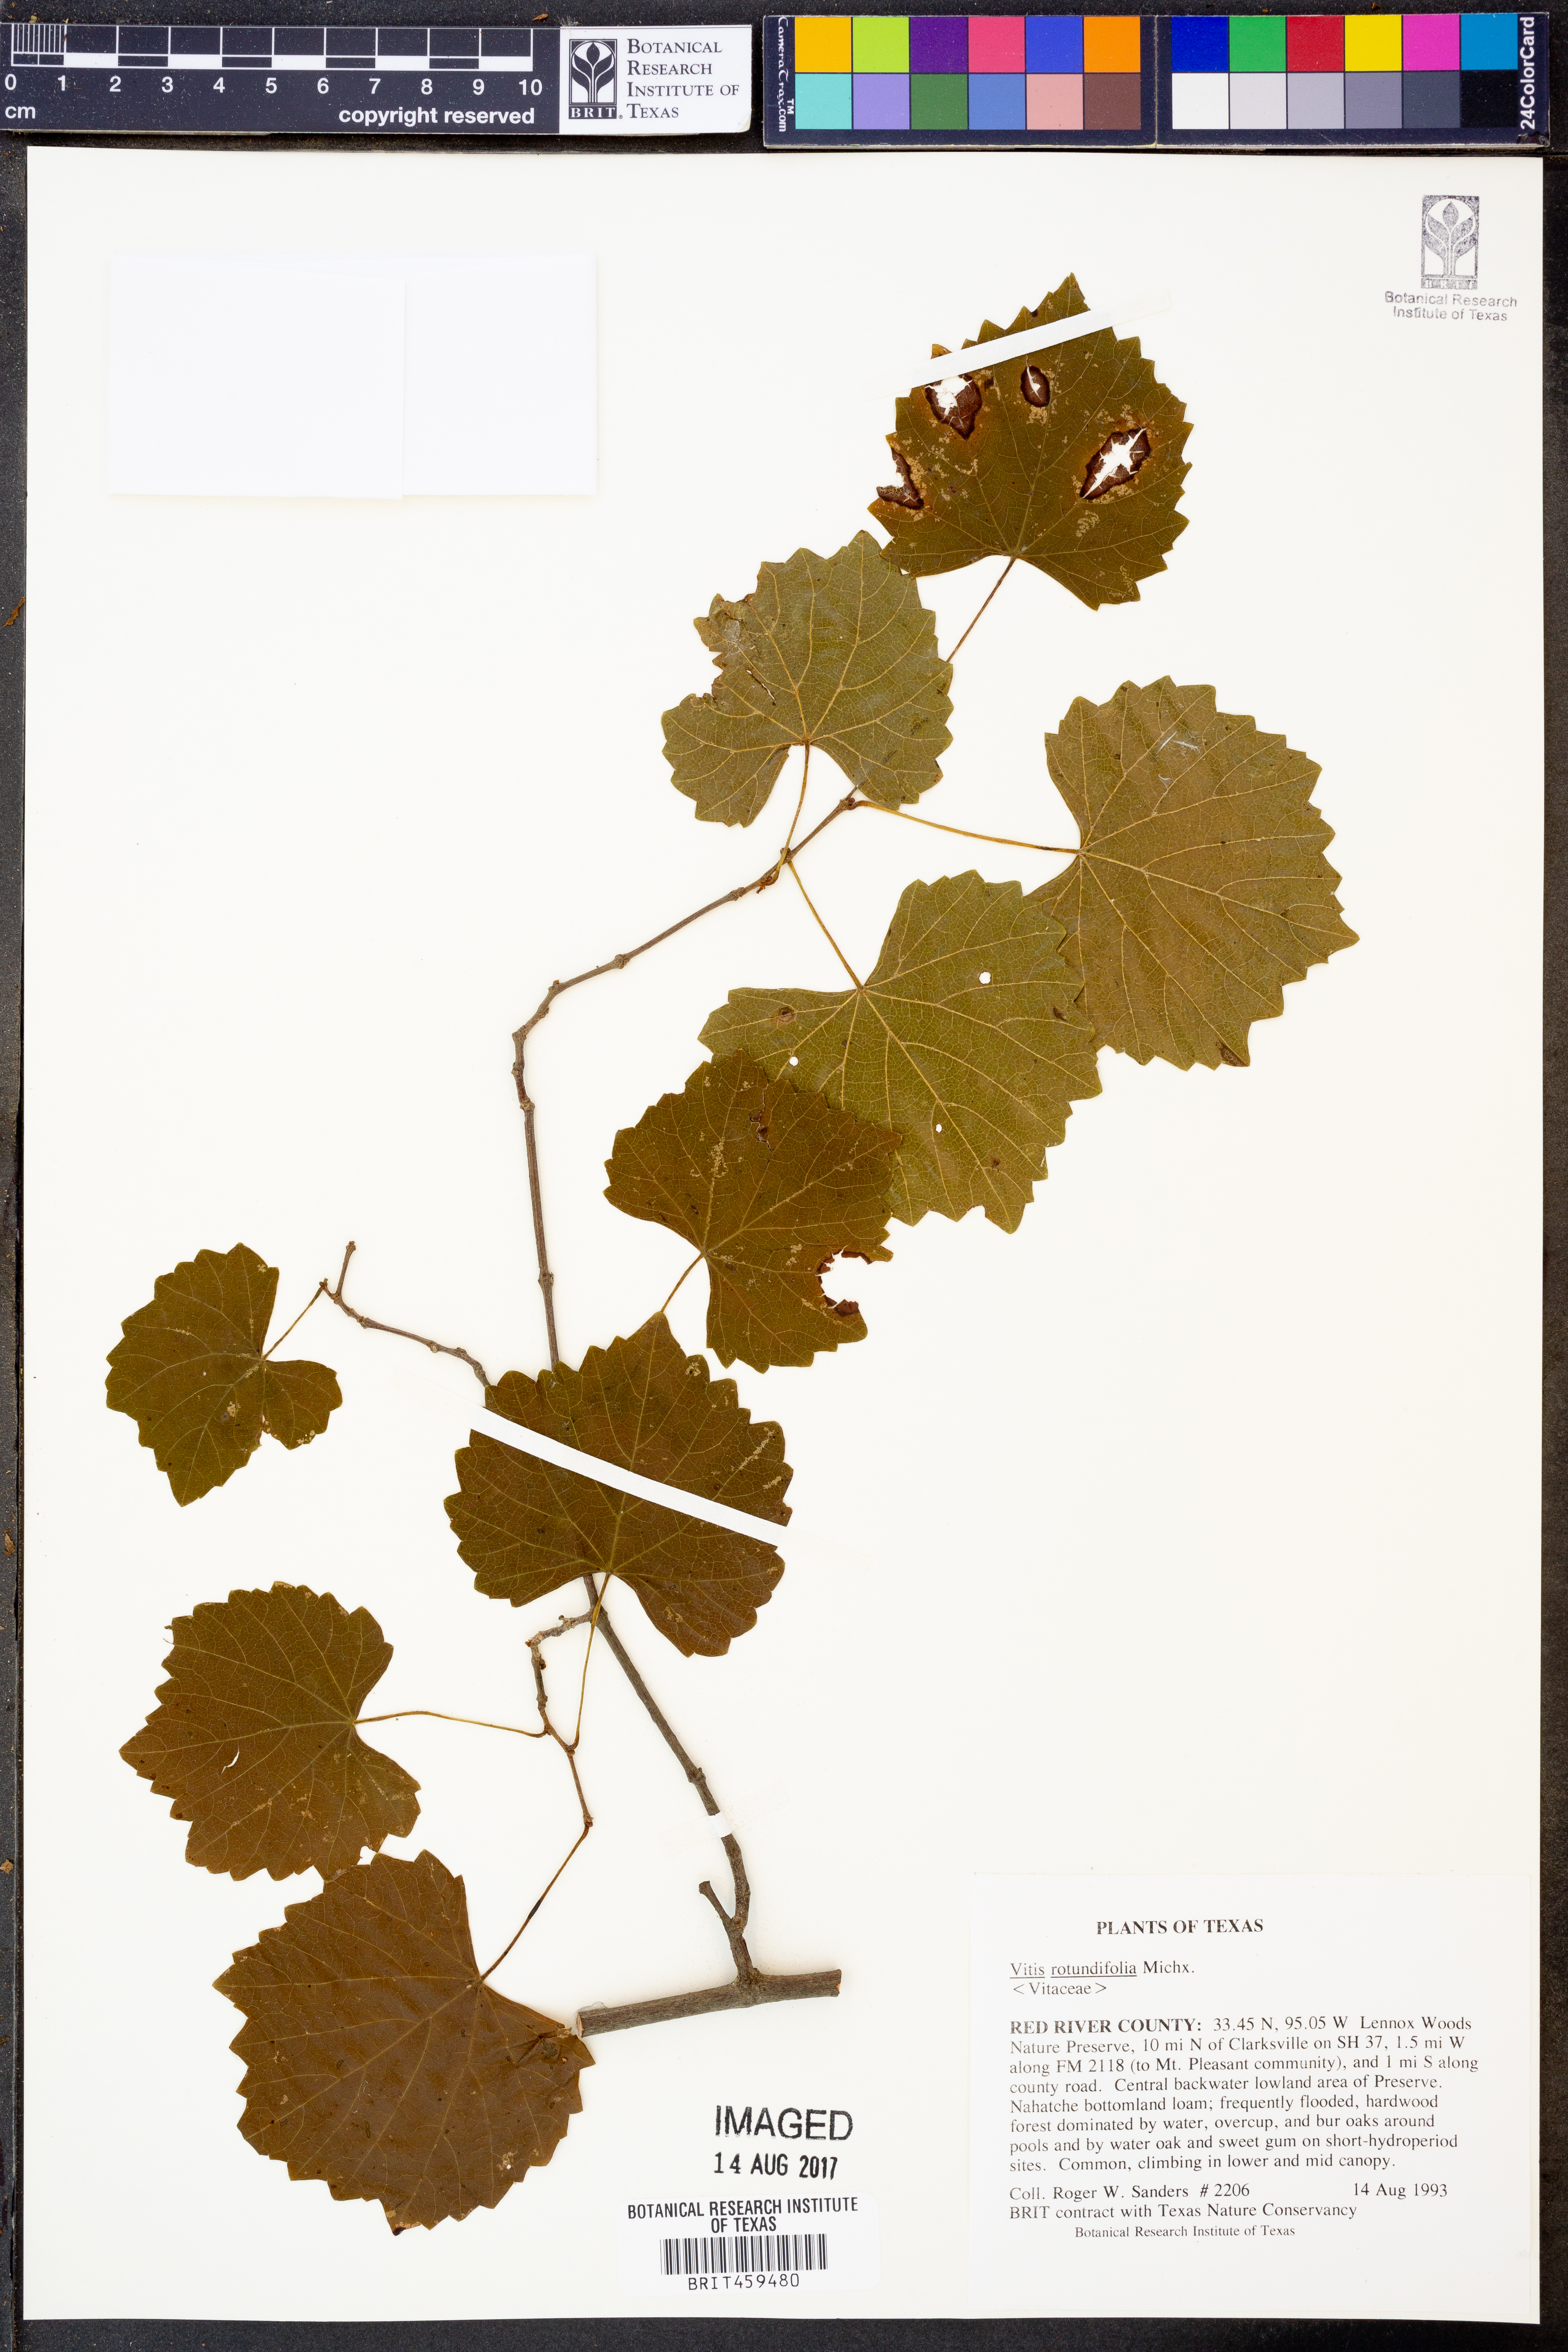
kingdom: Plantae
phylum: Tracheophyta
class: Magnoliopsida
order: Vitales
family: Vitaceae
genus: Vitis
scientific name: Vitis rotundifolia
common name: Muscadine grape
